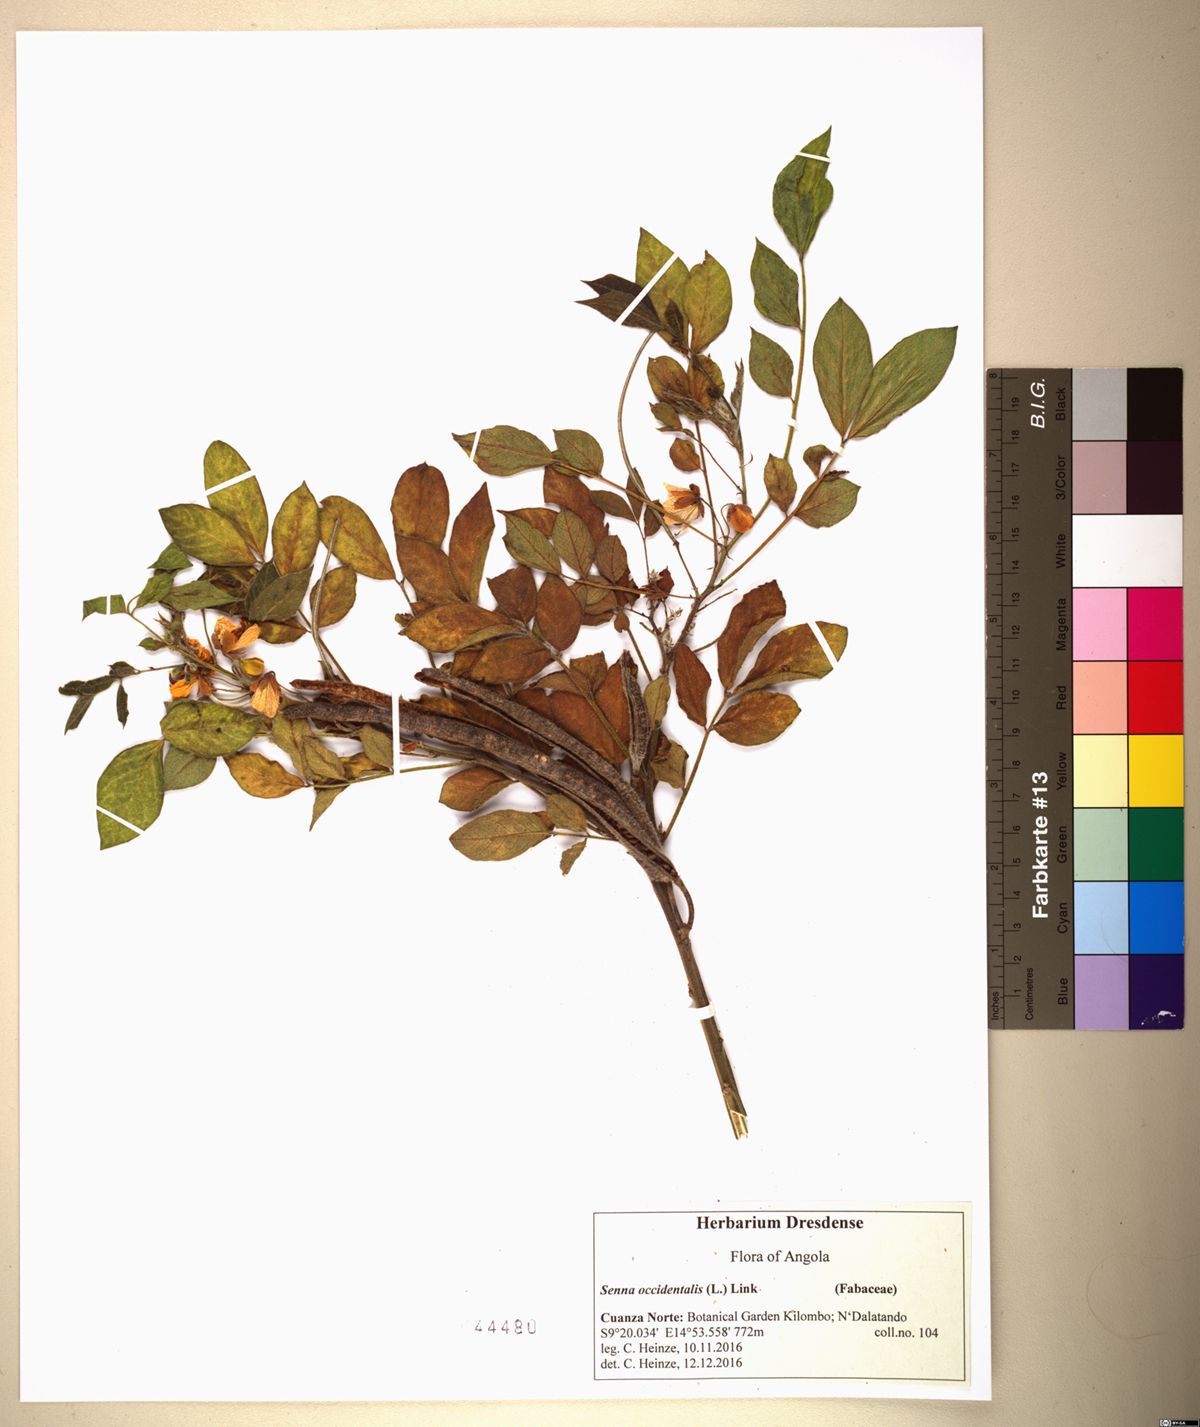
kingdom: Plantae
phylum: Tracheophyta
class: Magnoliopsida
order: Fabales
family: Fabaceae
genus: Senna
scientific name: Senna occidentalis
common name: Septicweed
